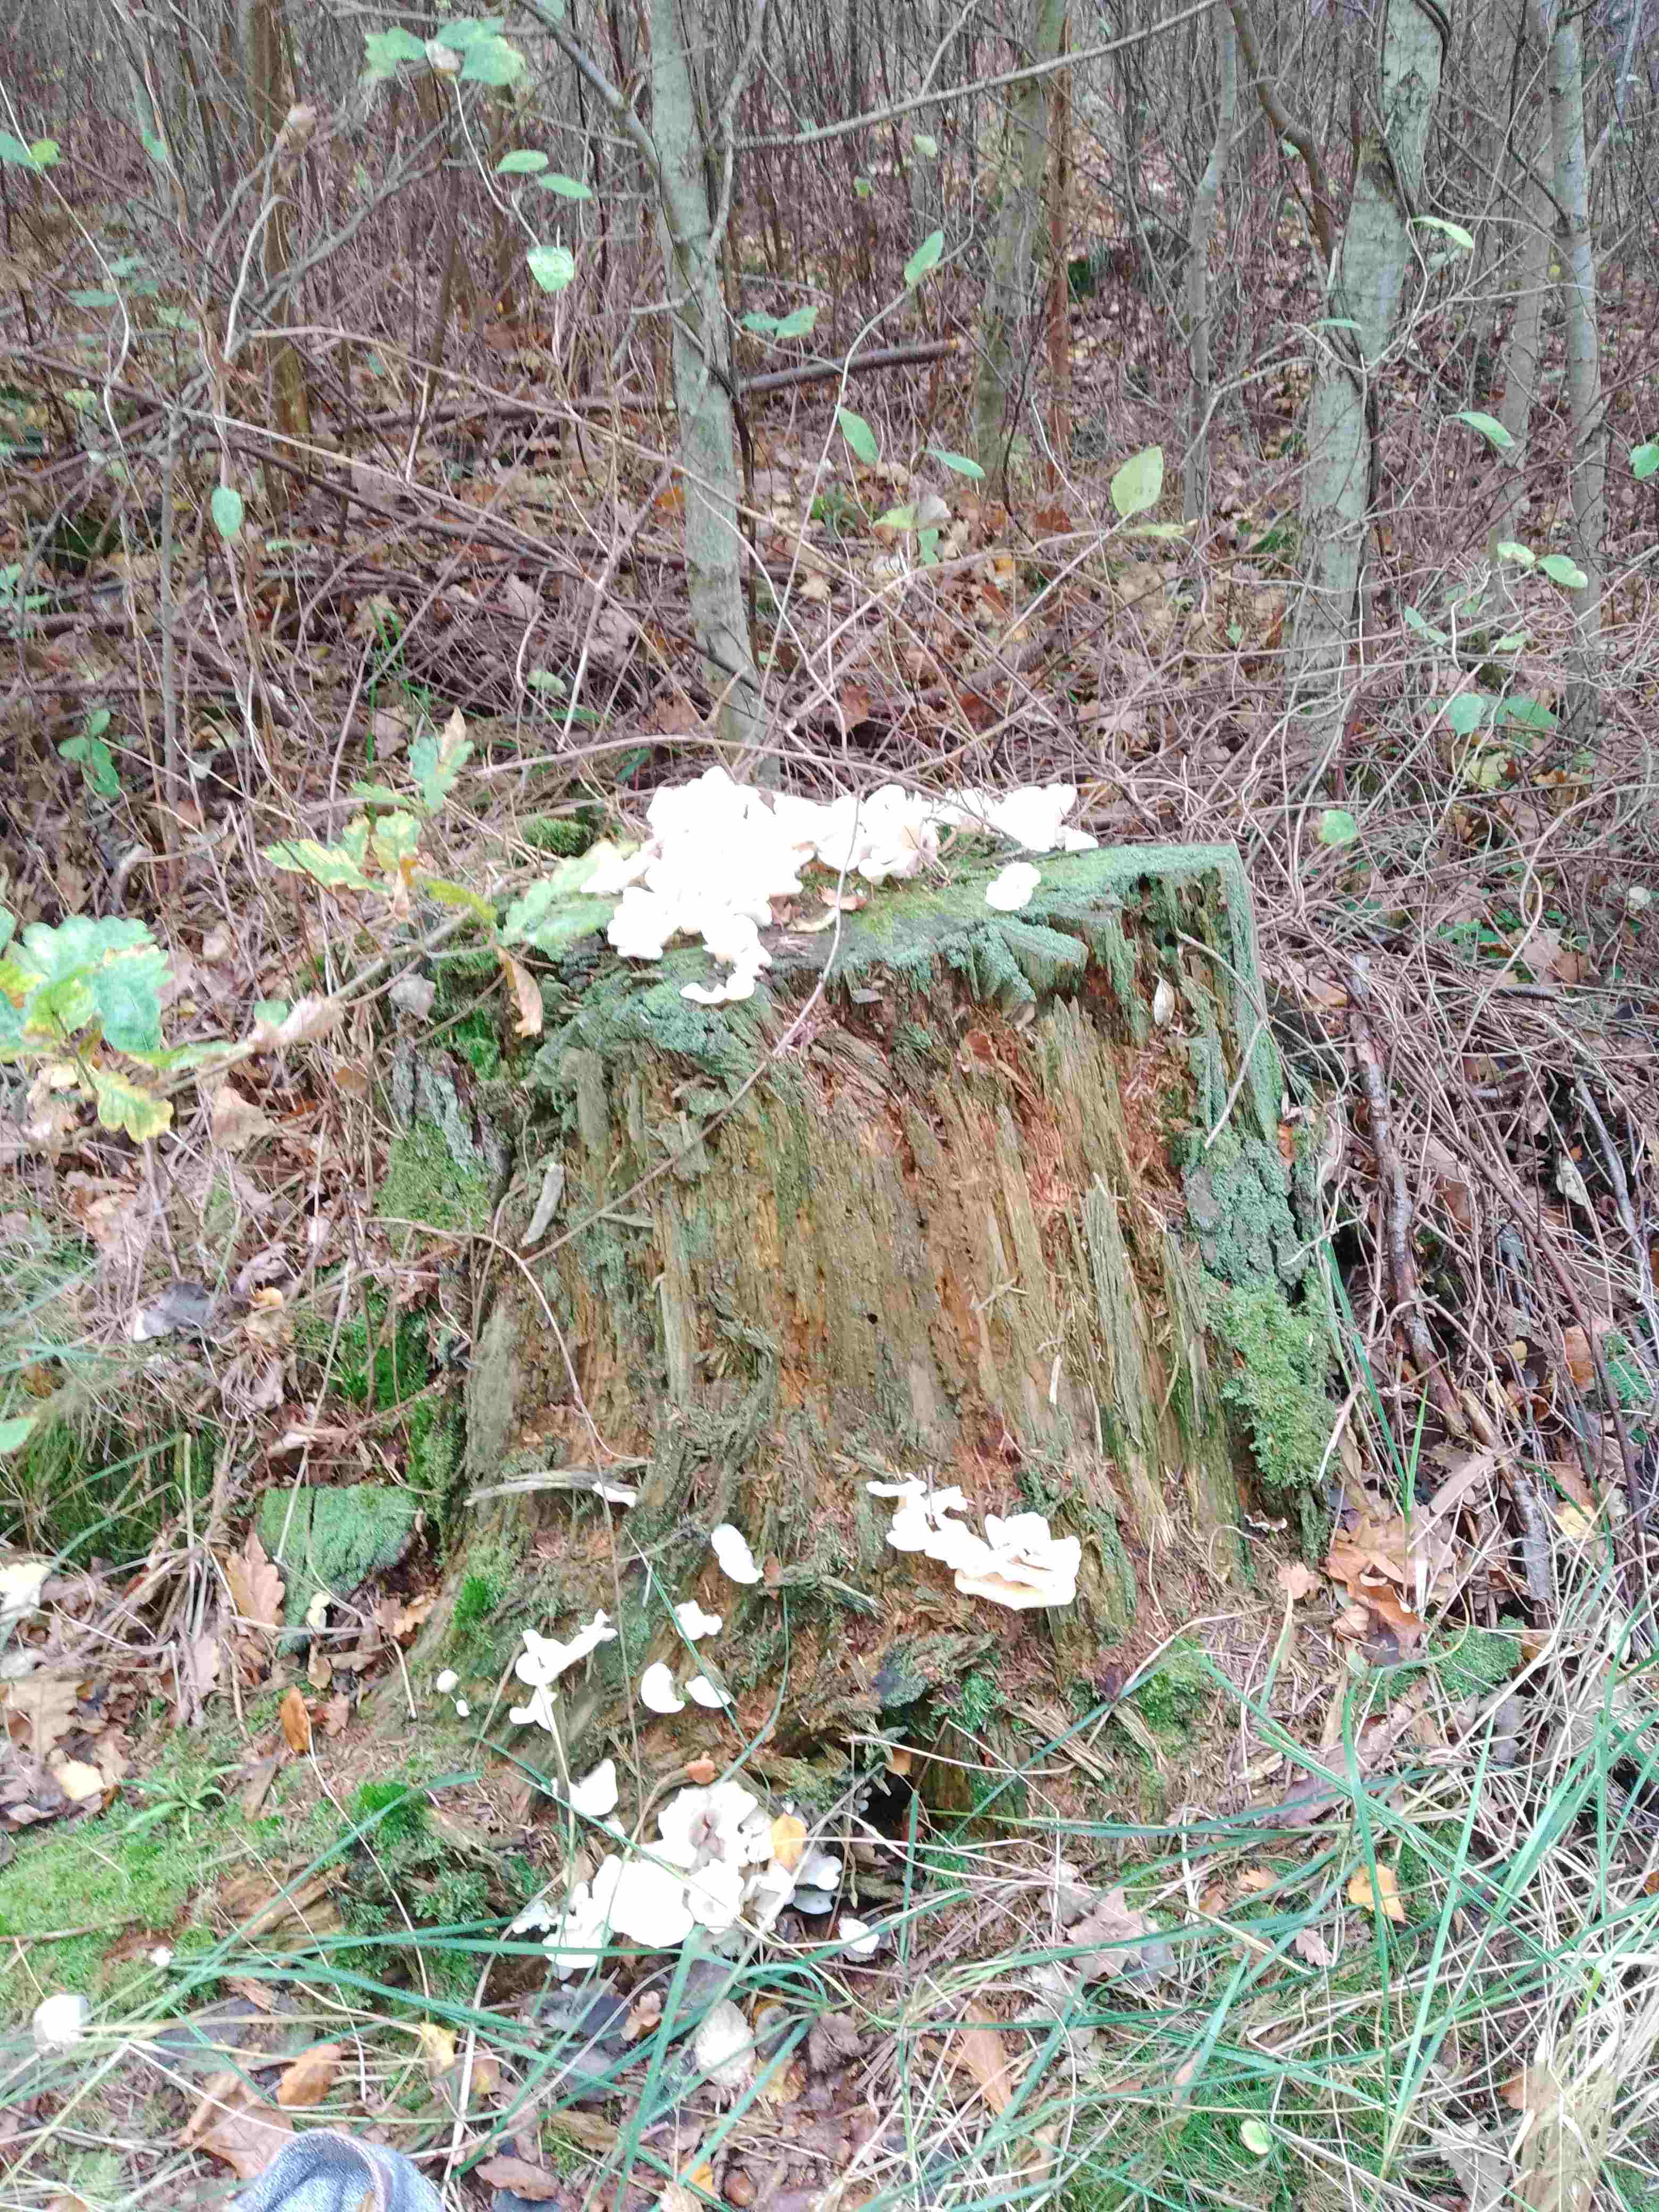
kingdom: Fungi
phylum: Basidiomycota
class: Agaricomycetes
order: Agaricales
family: Marasmiaceae
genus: Pleurocybella
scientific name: Pleurocybella porrigens
